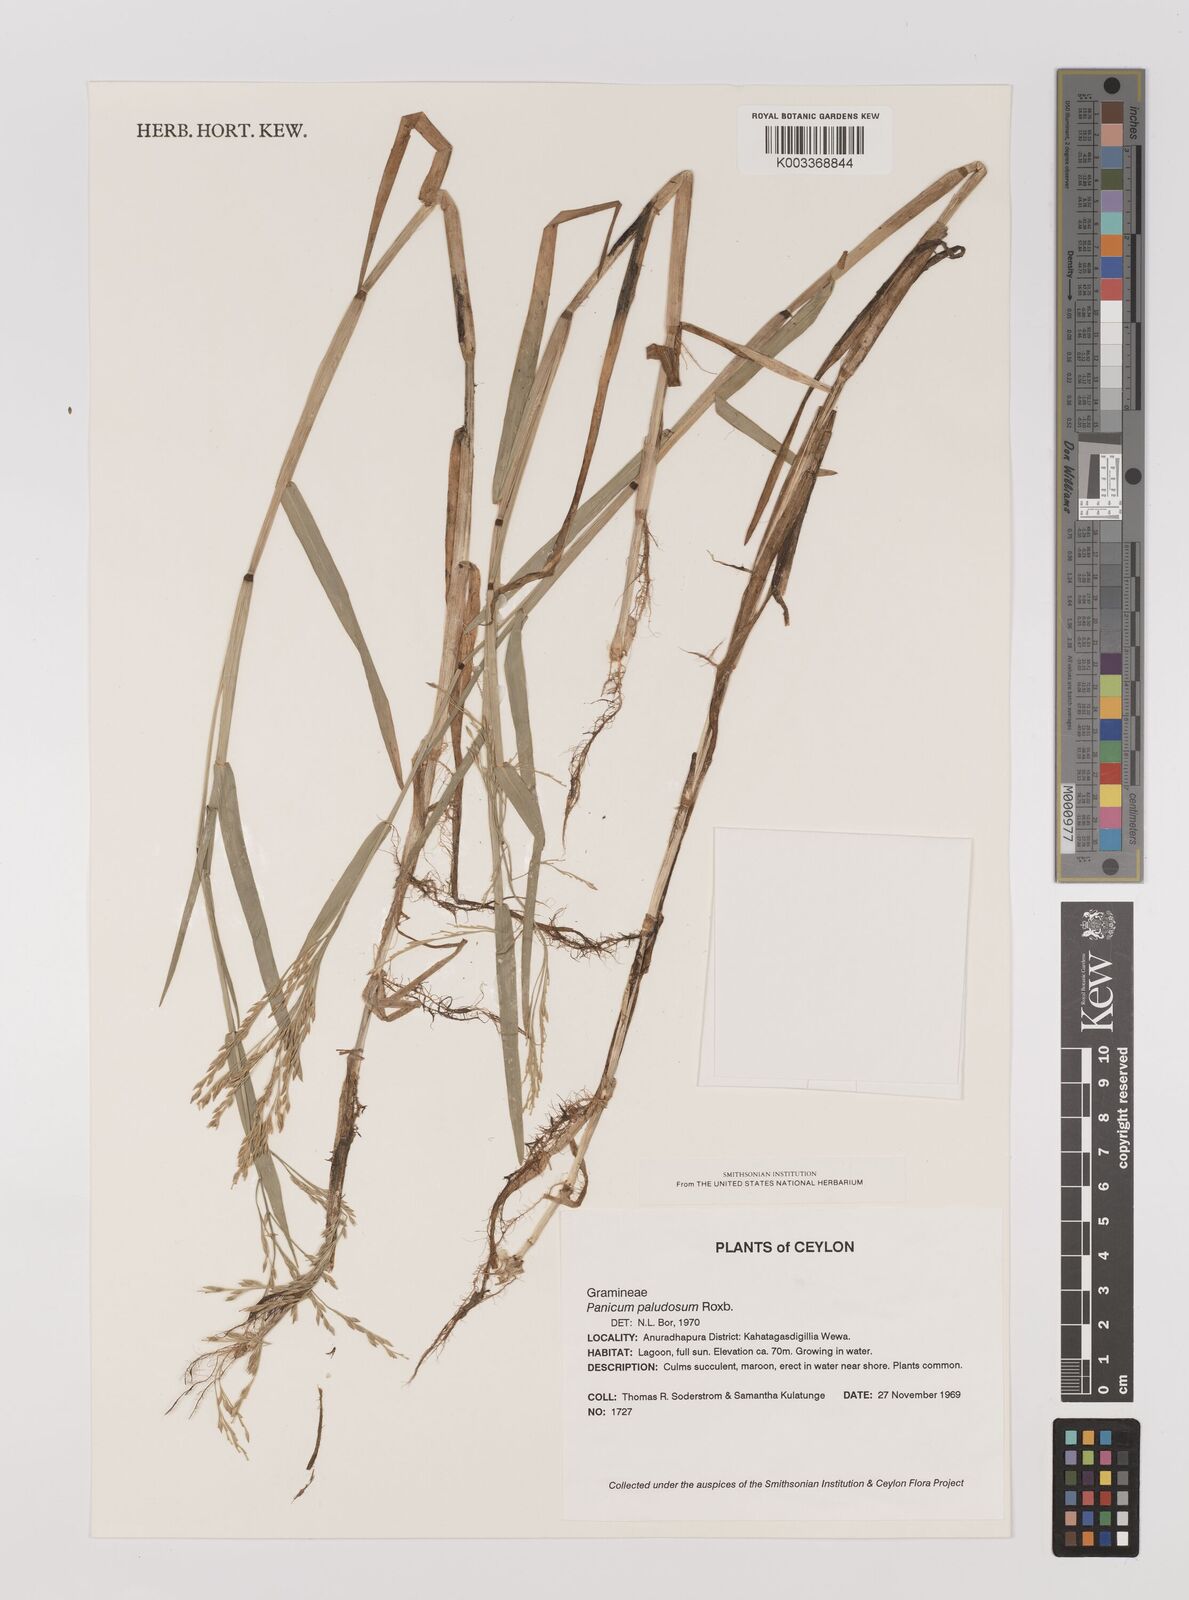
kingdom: Plantae
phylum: Tracheophyta
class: Liliopsida
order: Poales
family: Poaceae
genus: Louisiella
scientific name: Louisiella paludosa
